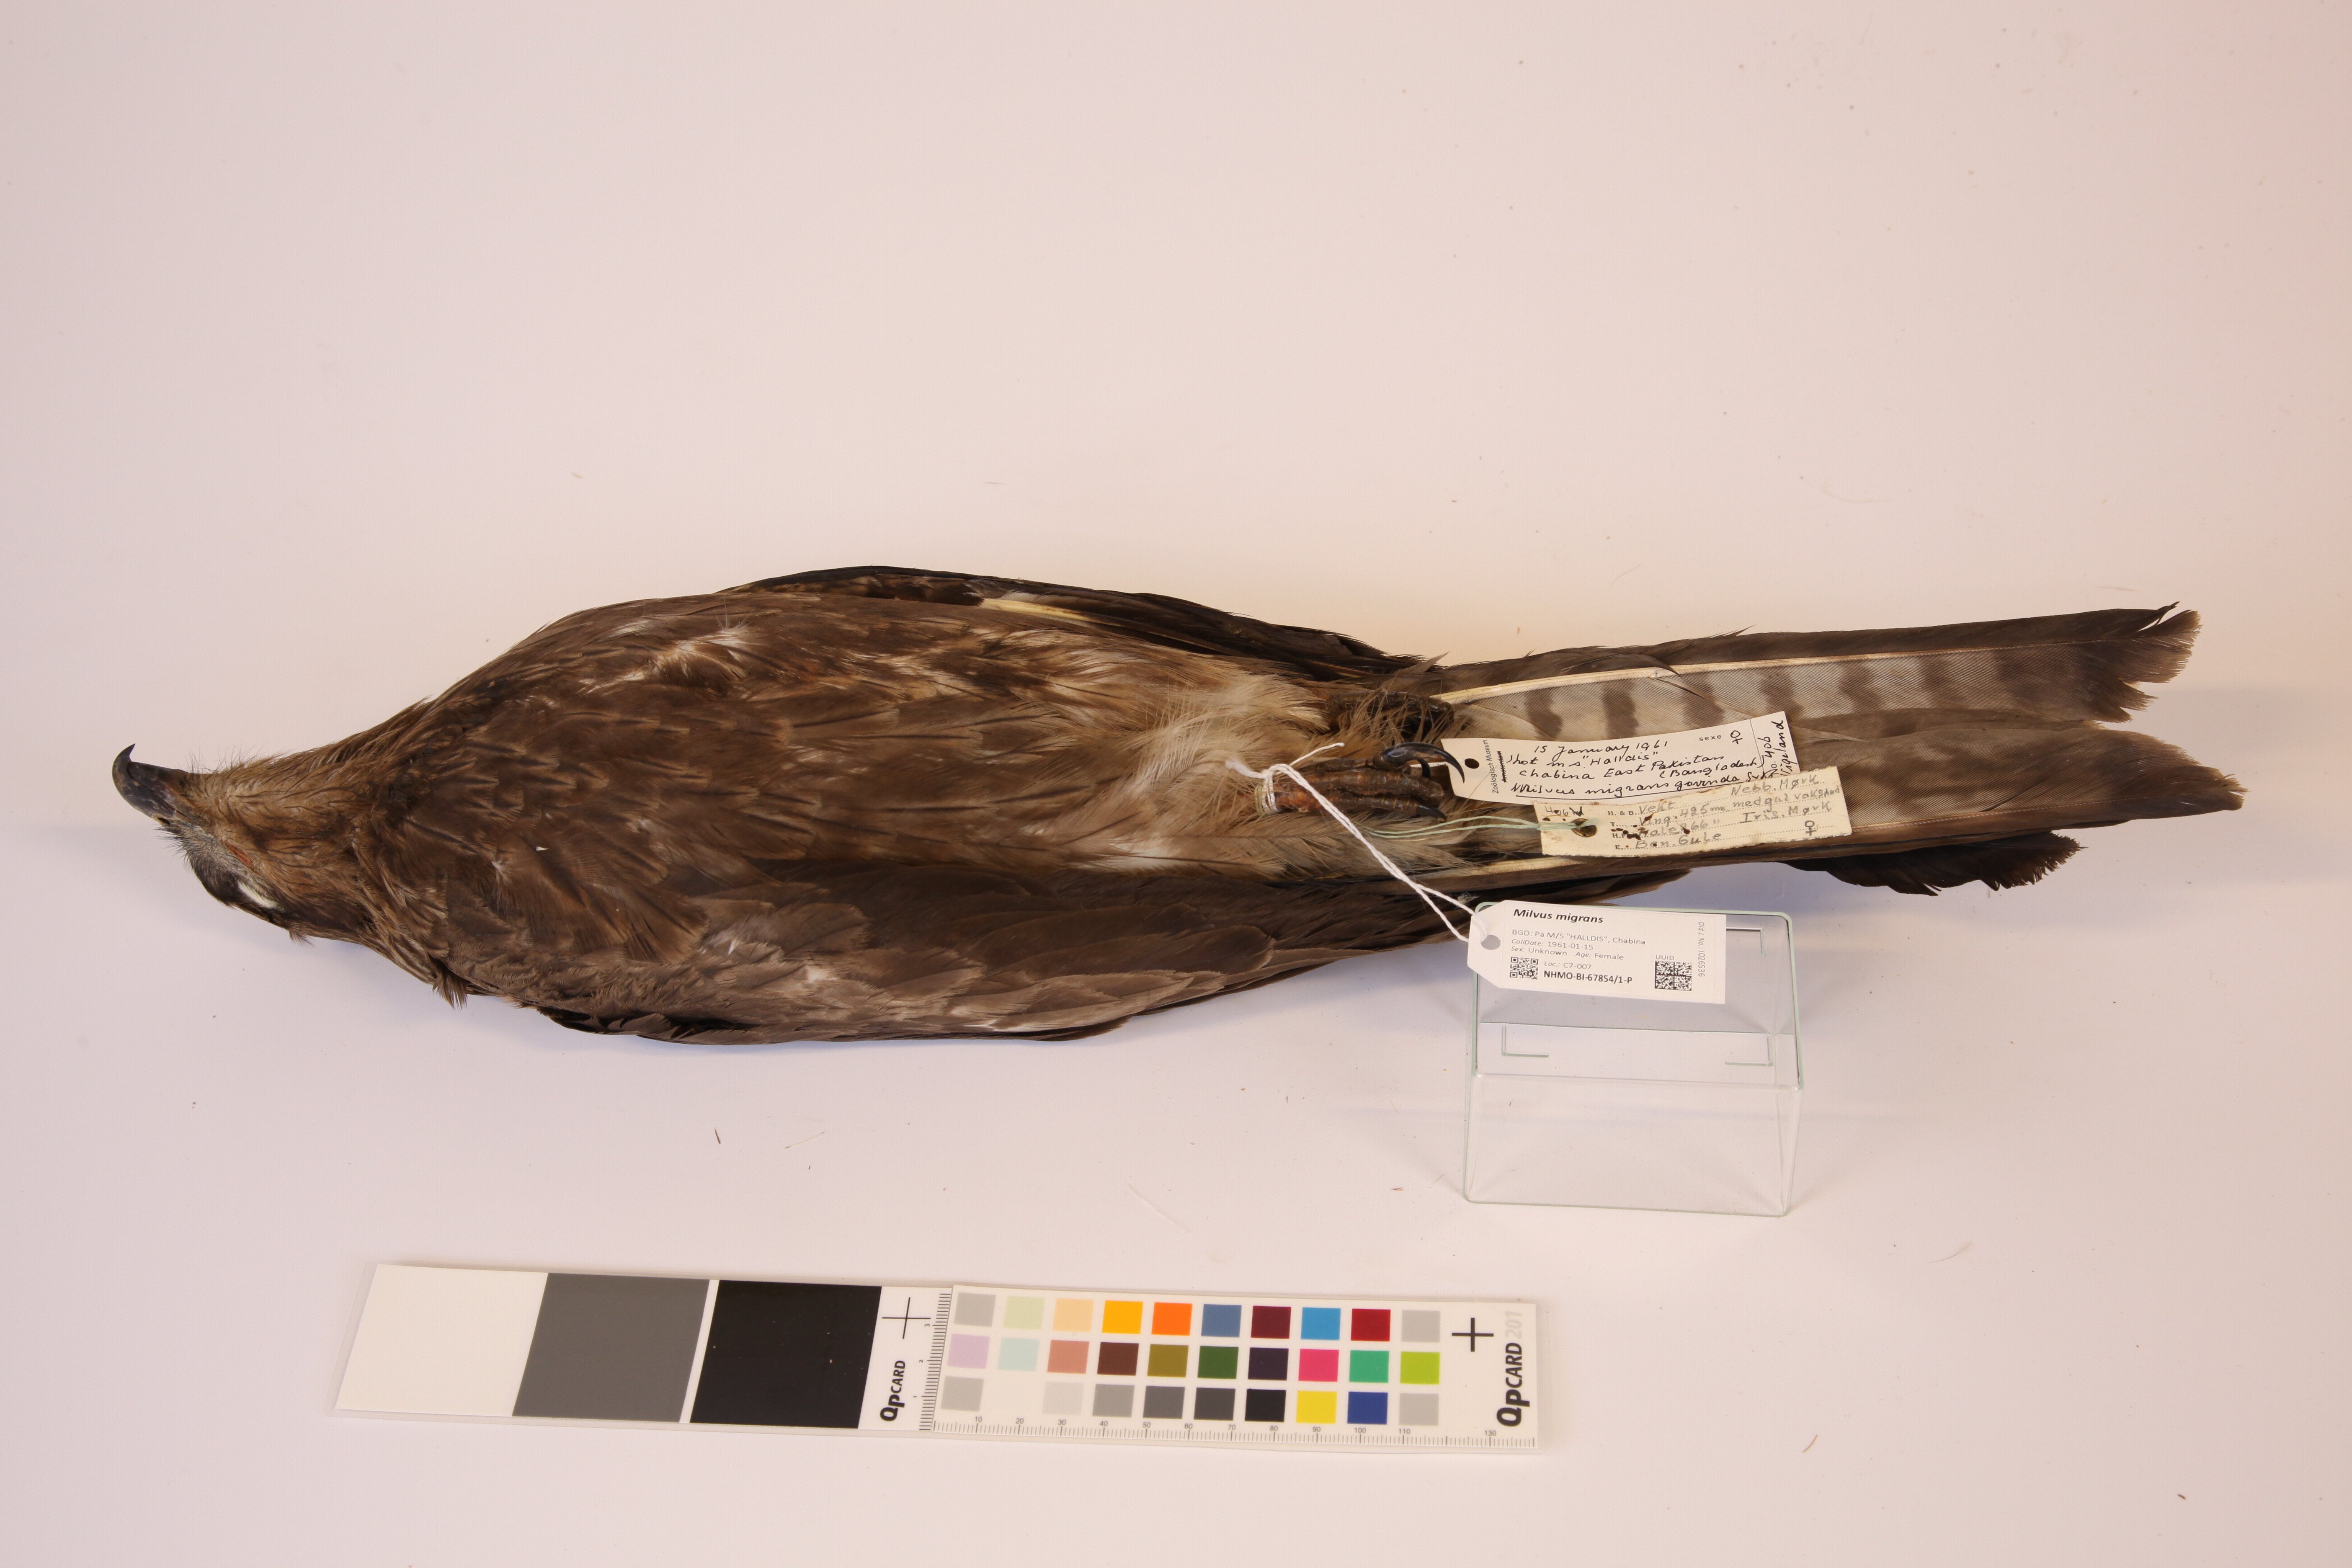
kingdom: Animalia
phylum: Chordata
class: Aves
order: Accipitriformes
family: Accipitridae
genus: Milvus
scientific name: Milvus migrans
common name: Black kite
